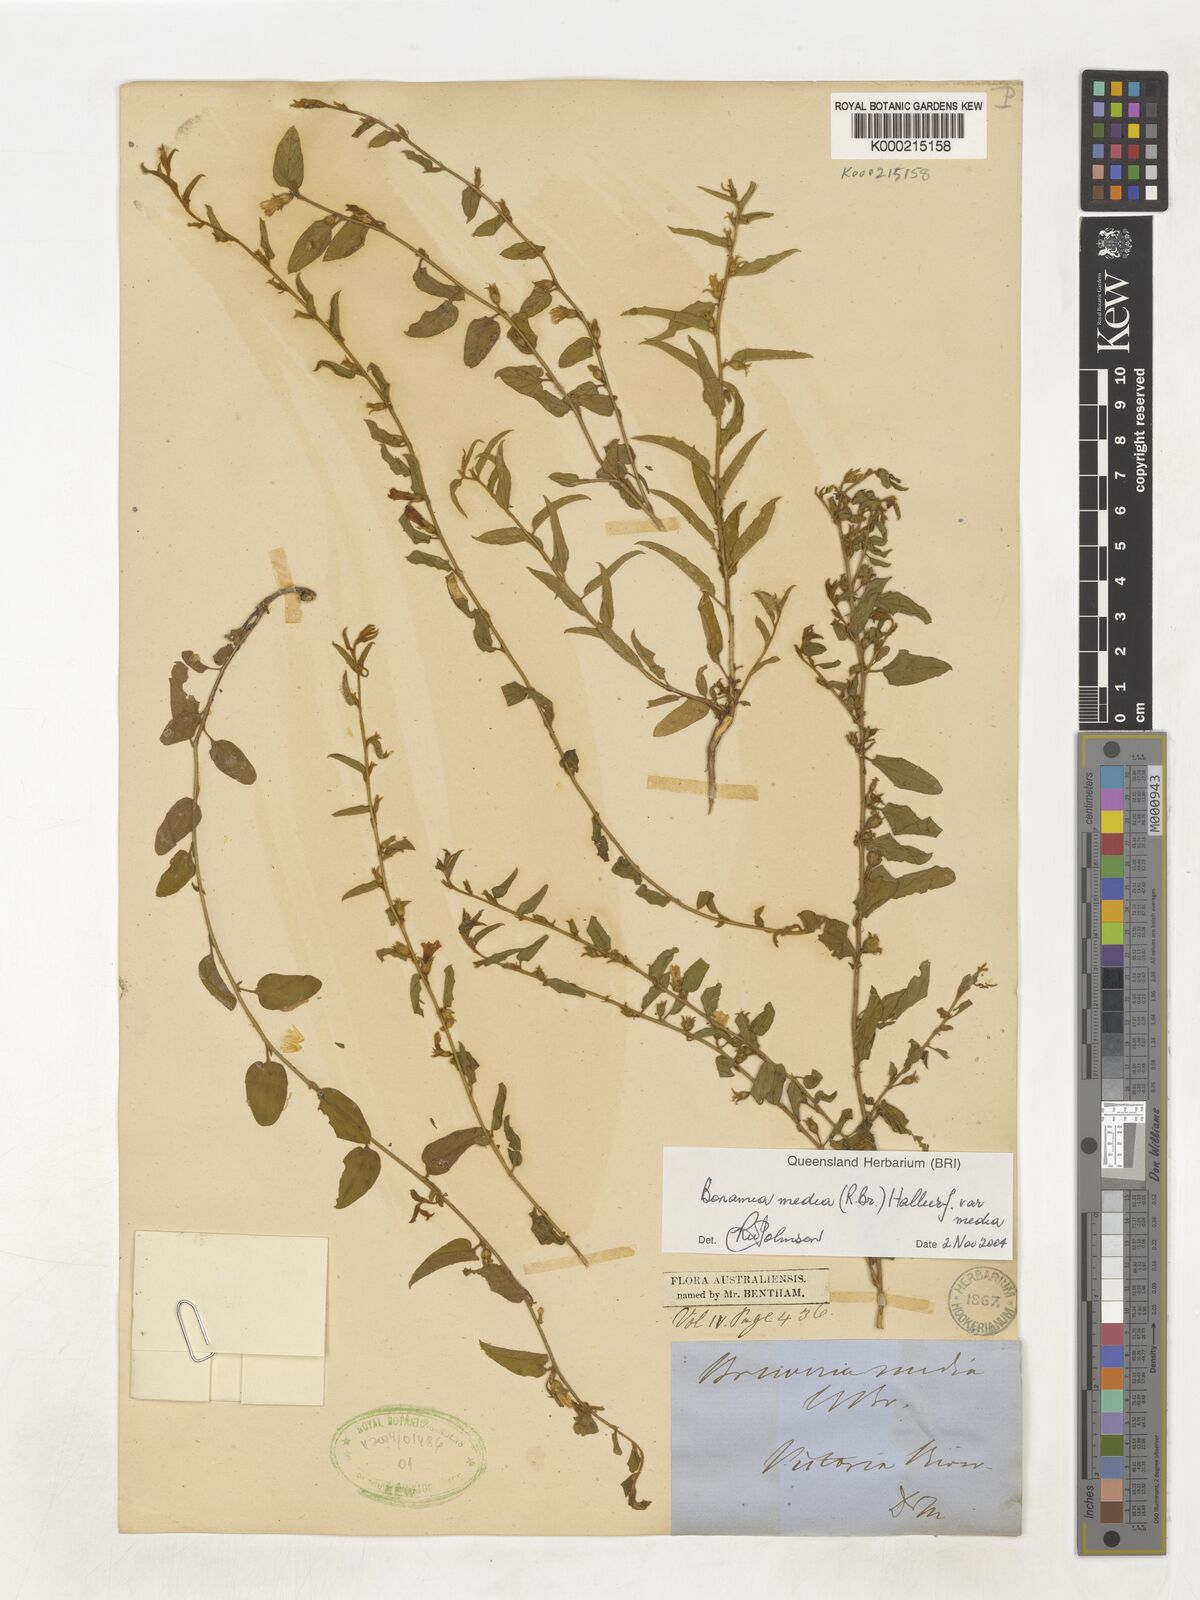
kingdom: Plantae
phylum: Tracheophyta
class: Magnoliopsida
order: Solanales
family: Convolvulaceae
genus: Bonamia
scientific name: Bonamia media
